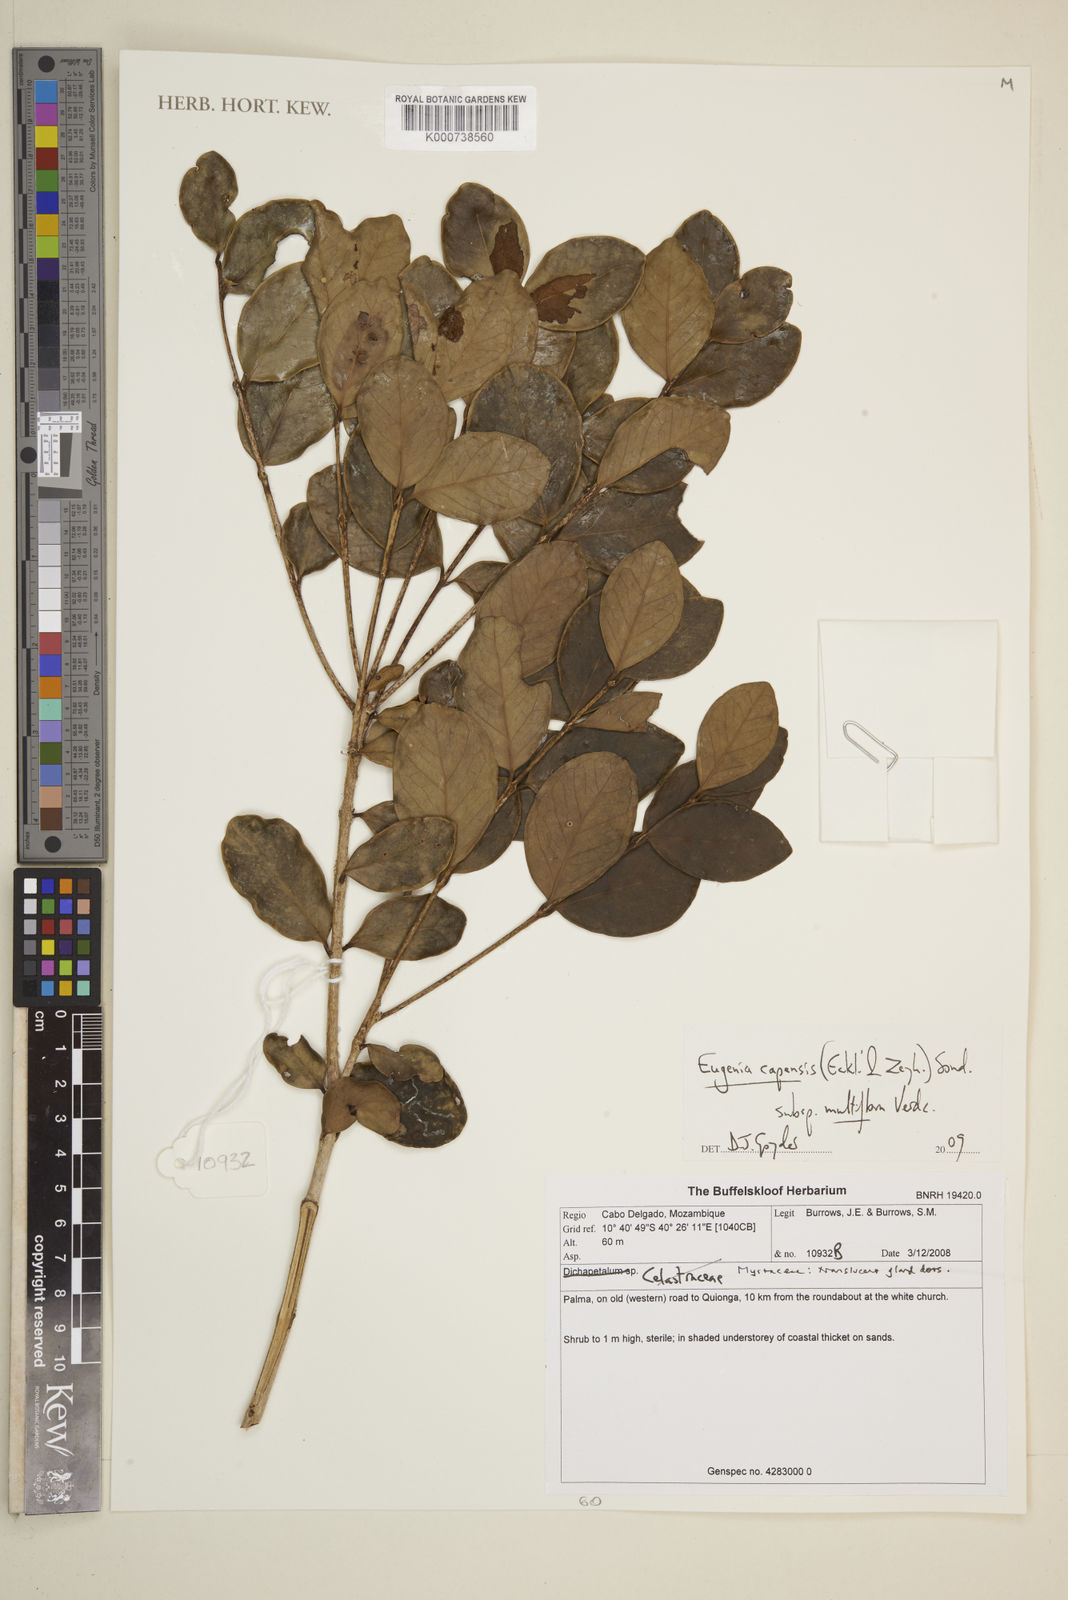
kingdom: Plantae
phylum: Tracheophyta
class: Magnoliopsida
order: Myrtales
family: Myrtaceae
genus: Eugenia
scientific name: Eugenia capensis
